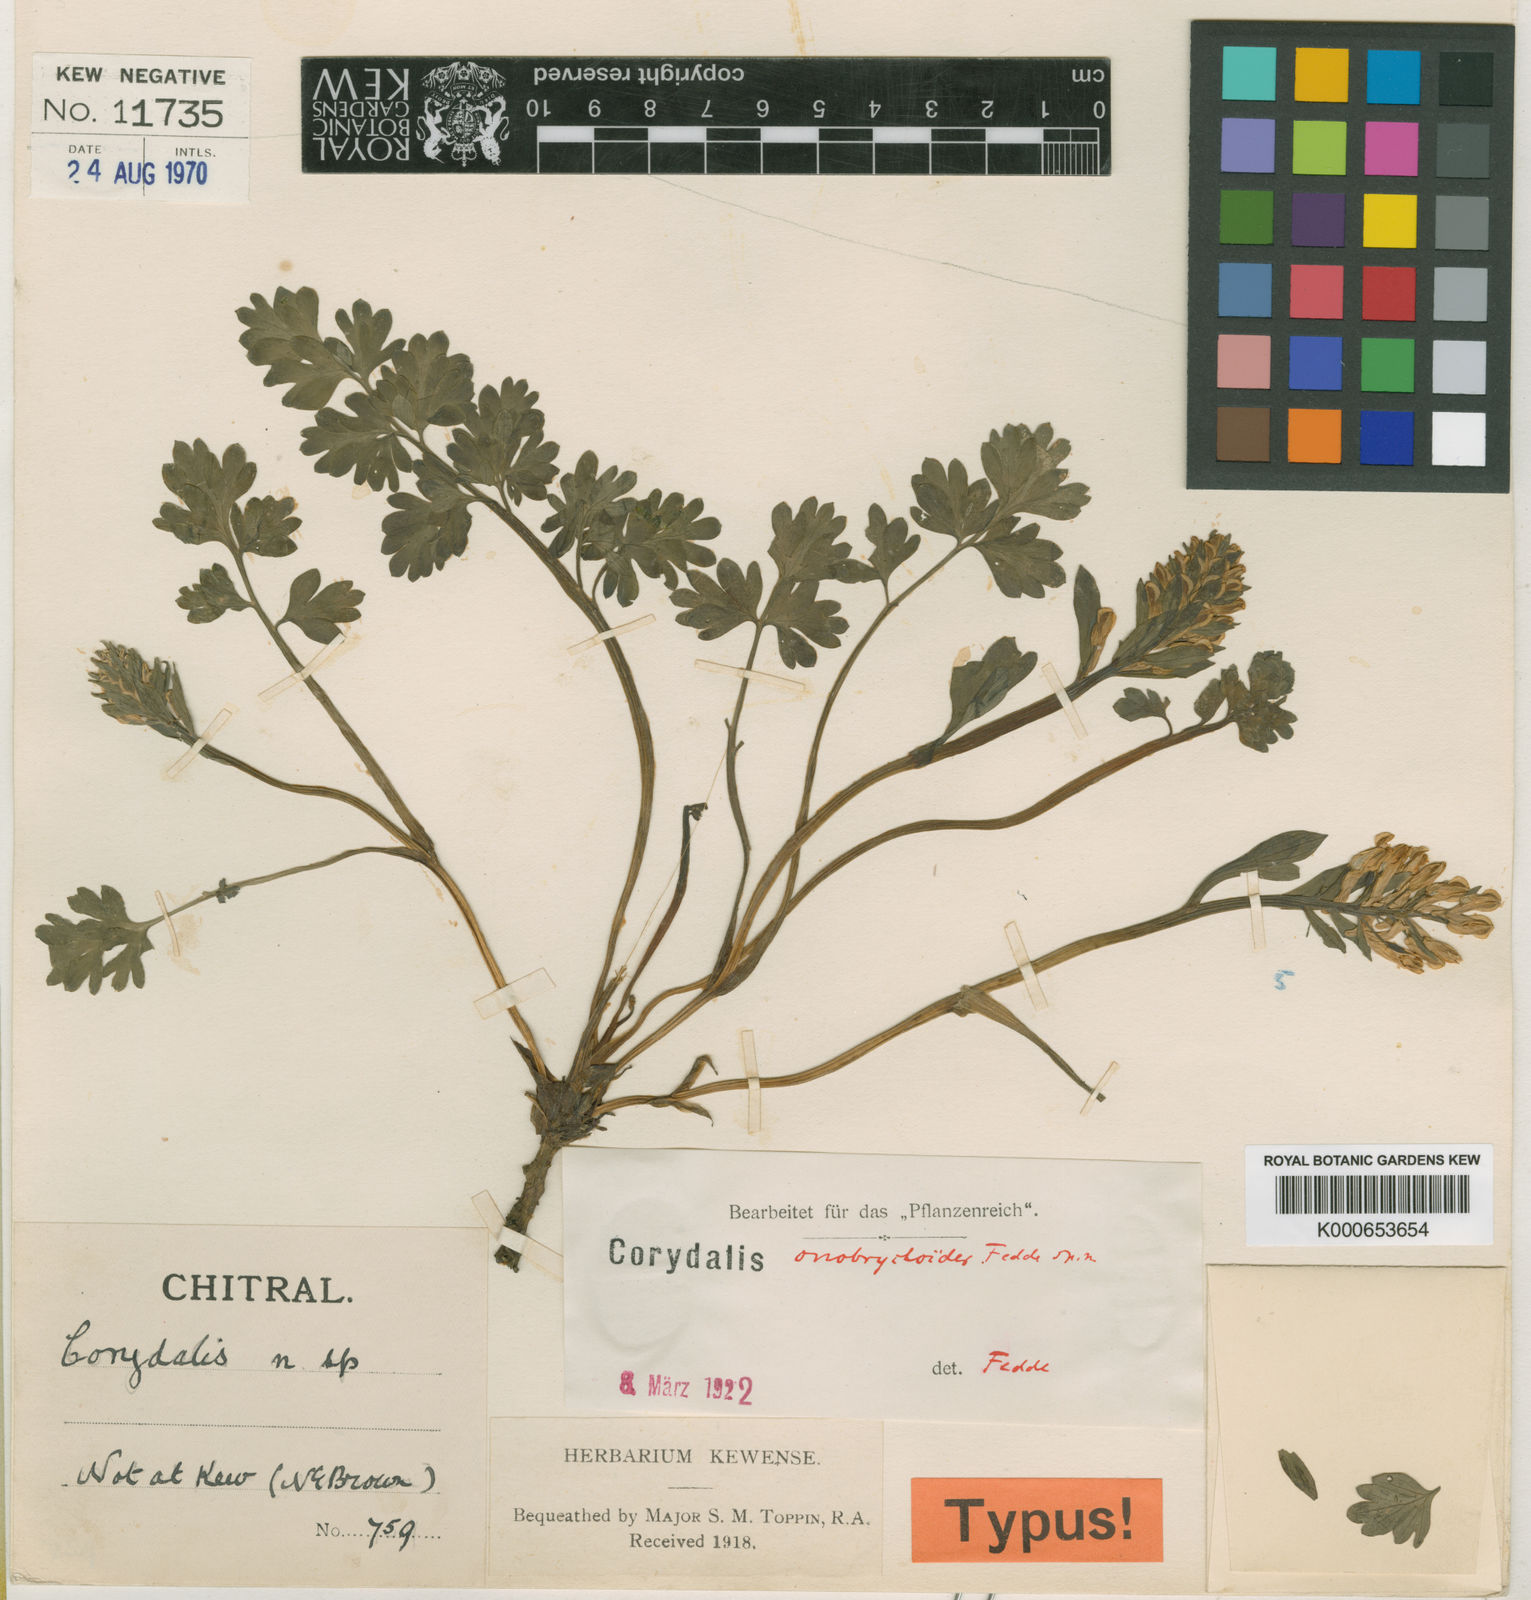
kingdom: Plantae
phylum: Tracheophyta
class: Magnoliopsida
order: Ranunculales
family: Papaveraceae
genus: Corydalis
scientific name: Corydalis moorcroftiana
